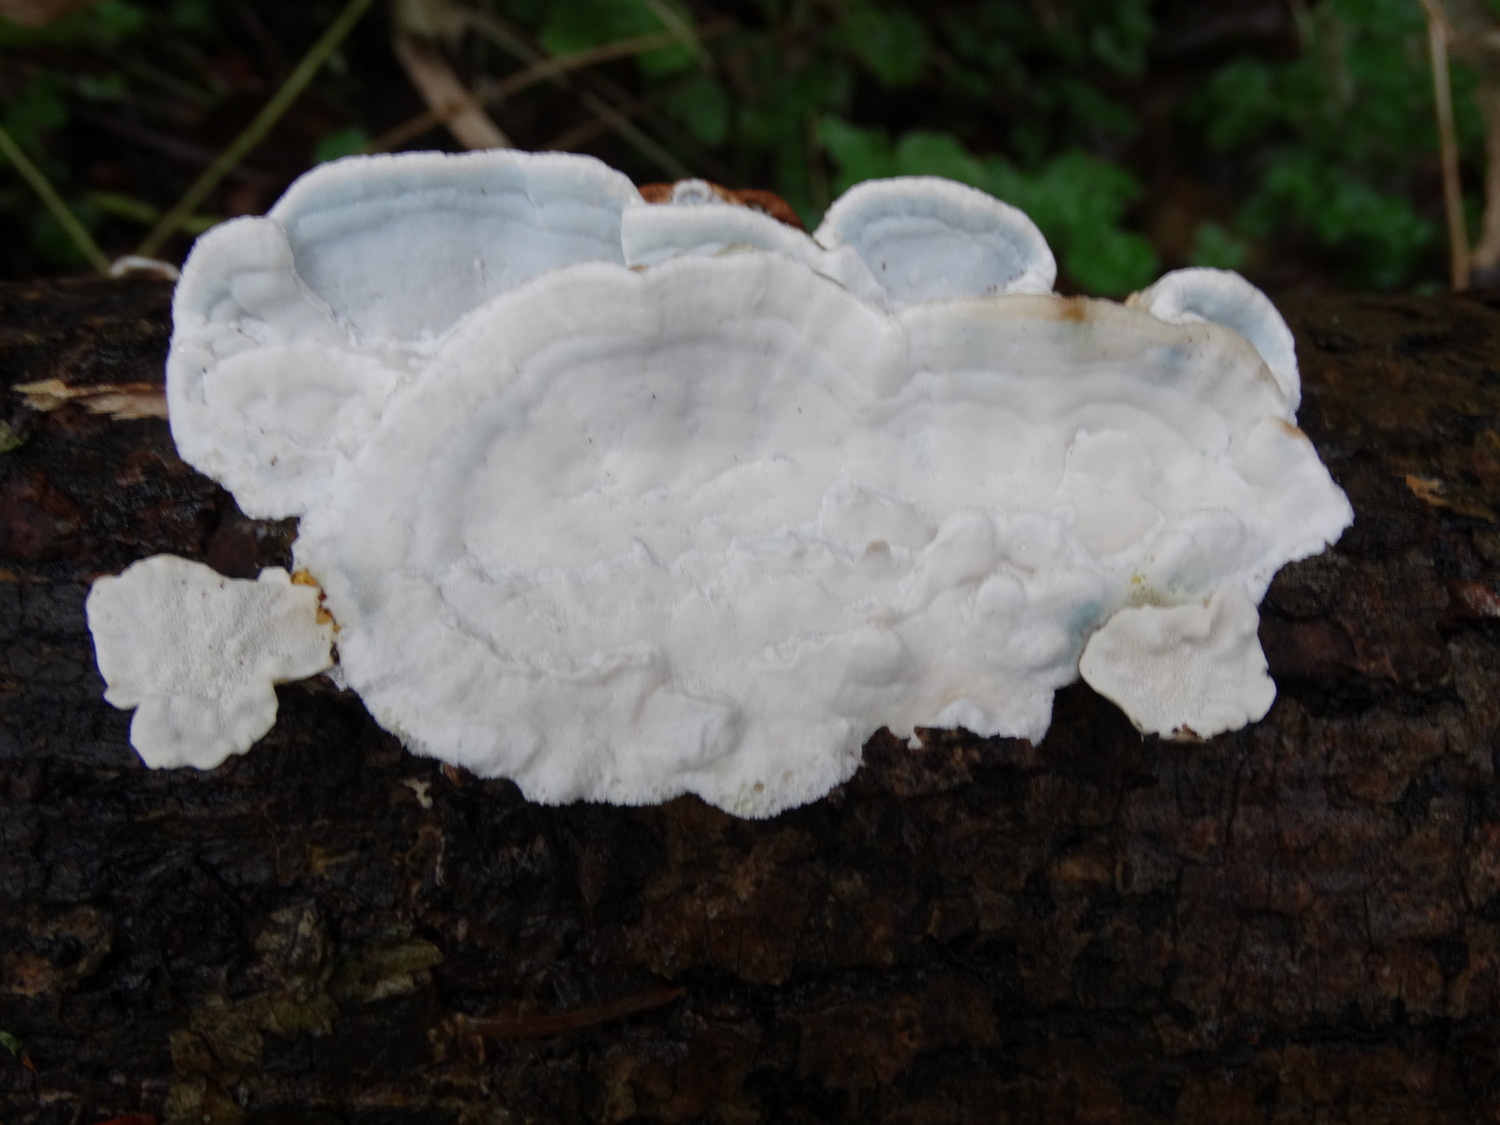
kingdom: Fungi
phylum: Basidiomycota
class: Agaricomycetes
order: Polyporales
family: Incrustoporiaceae
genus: Skeletocutis
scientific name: Skeletocutis nemoralis
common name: stor krystalporesvamp
